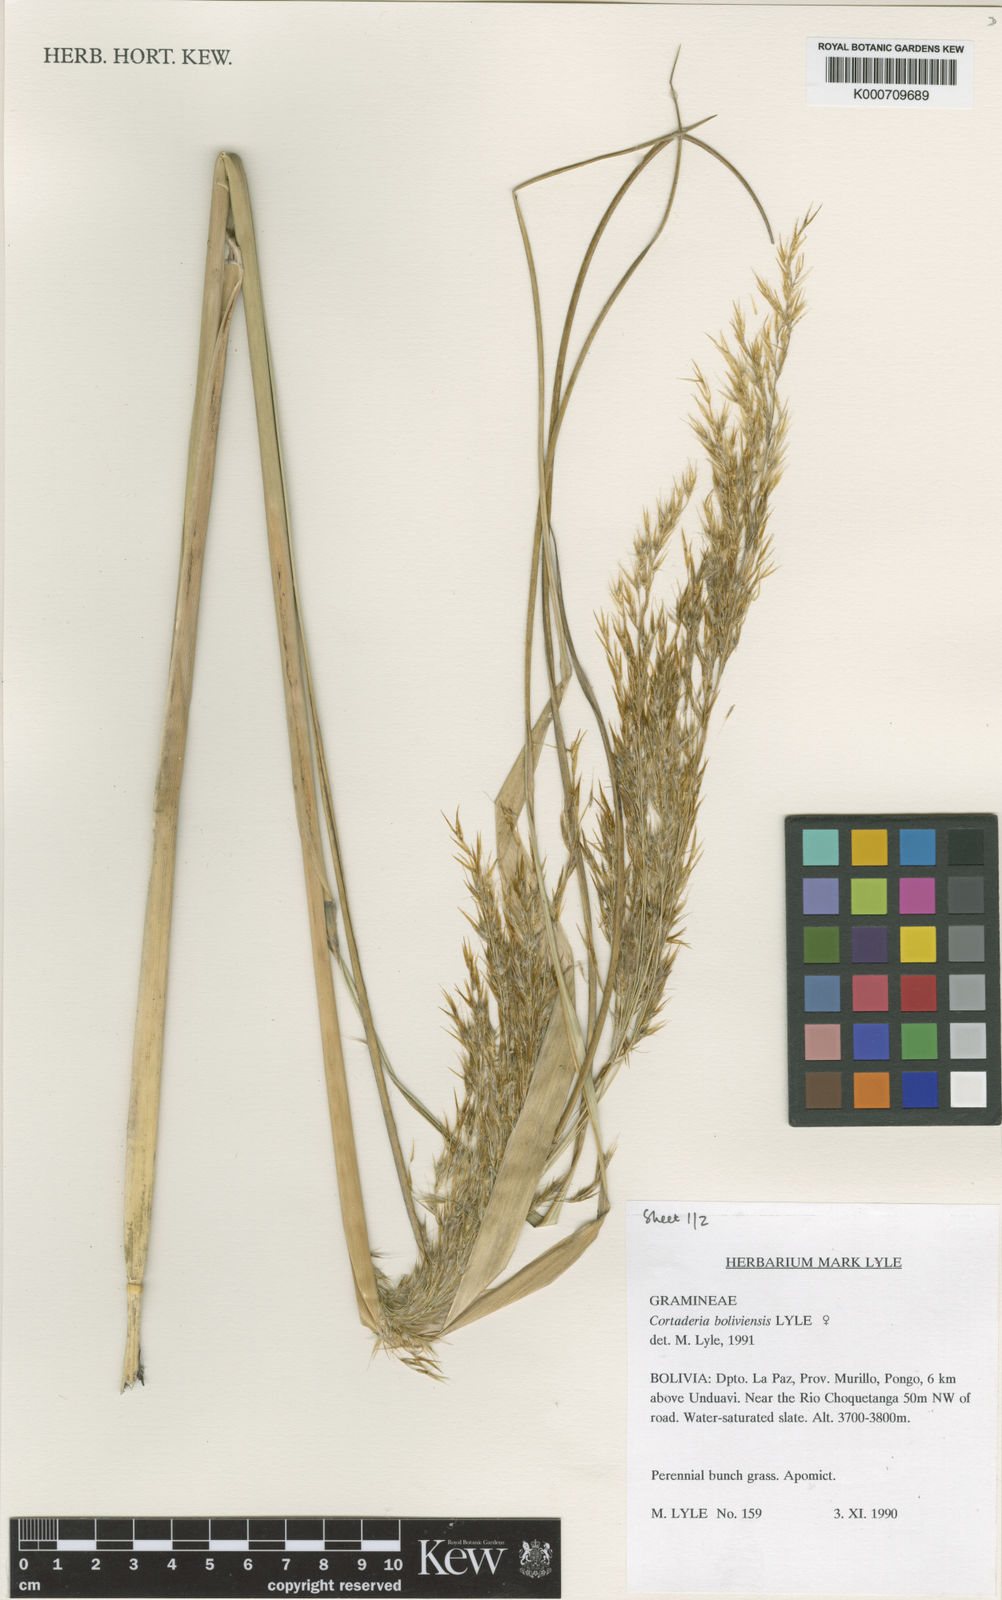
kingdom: Plantae
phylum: Tracheophyta
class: Liliopsida
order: Poales
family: Poaceae
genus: Cortaderia
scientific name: Cortaderia boliviensis
